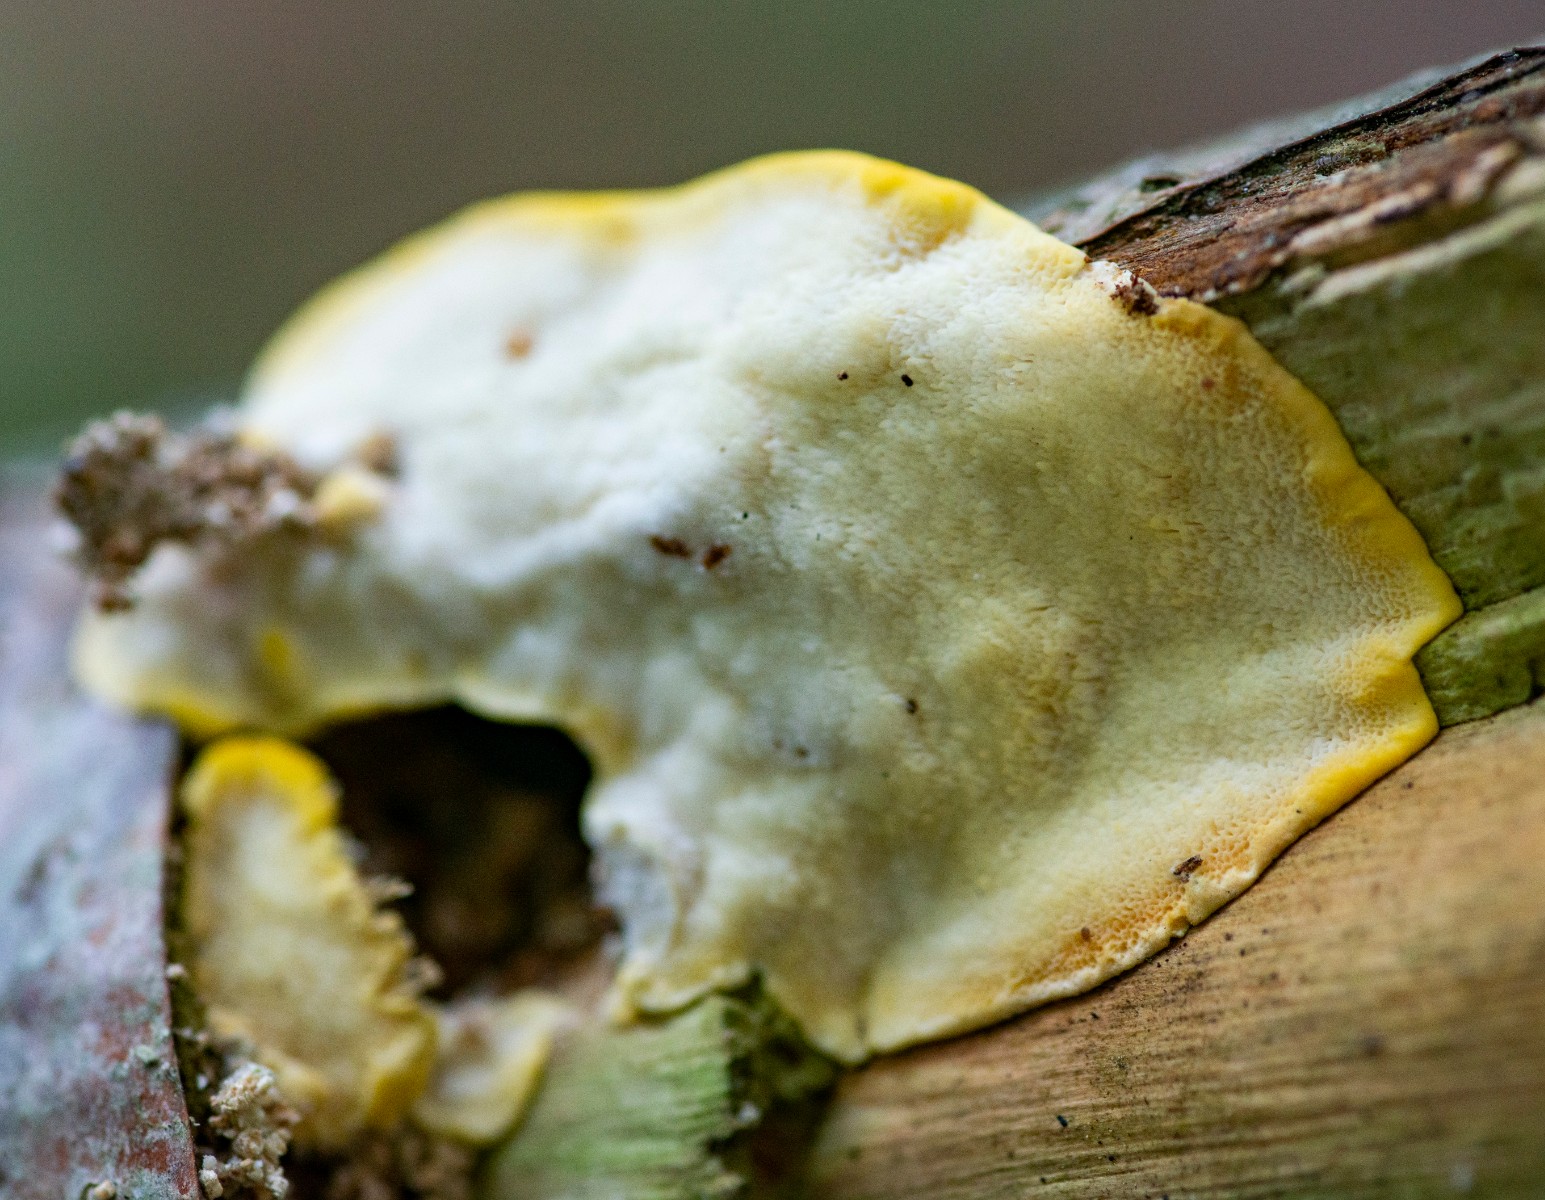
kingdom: Fungi
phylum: Basidiomycota
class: Agaricomycetes
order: Polyporales
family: Steccherinaceae
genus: Antrodiella
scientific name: Antrodiella serpula
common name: gulrandet elastikporesvamp
